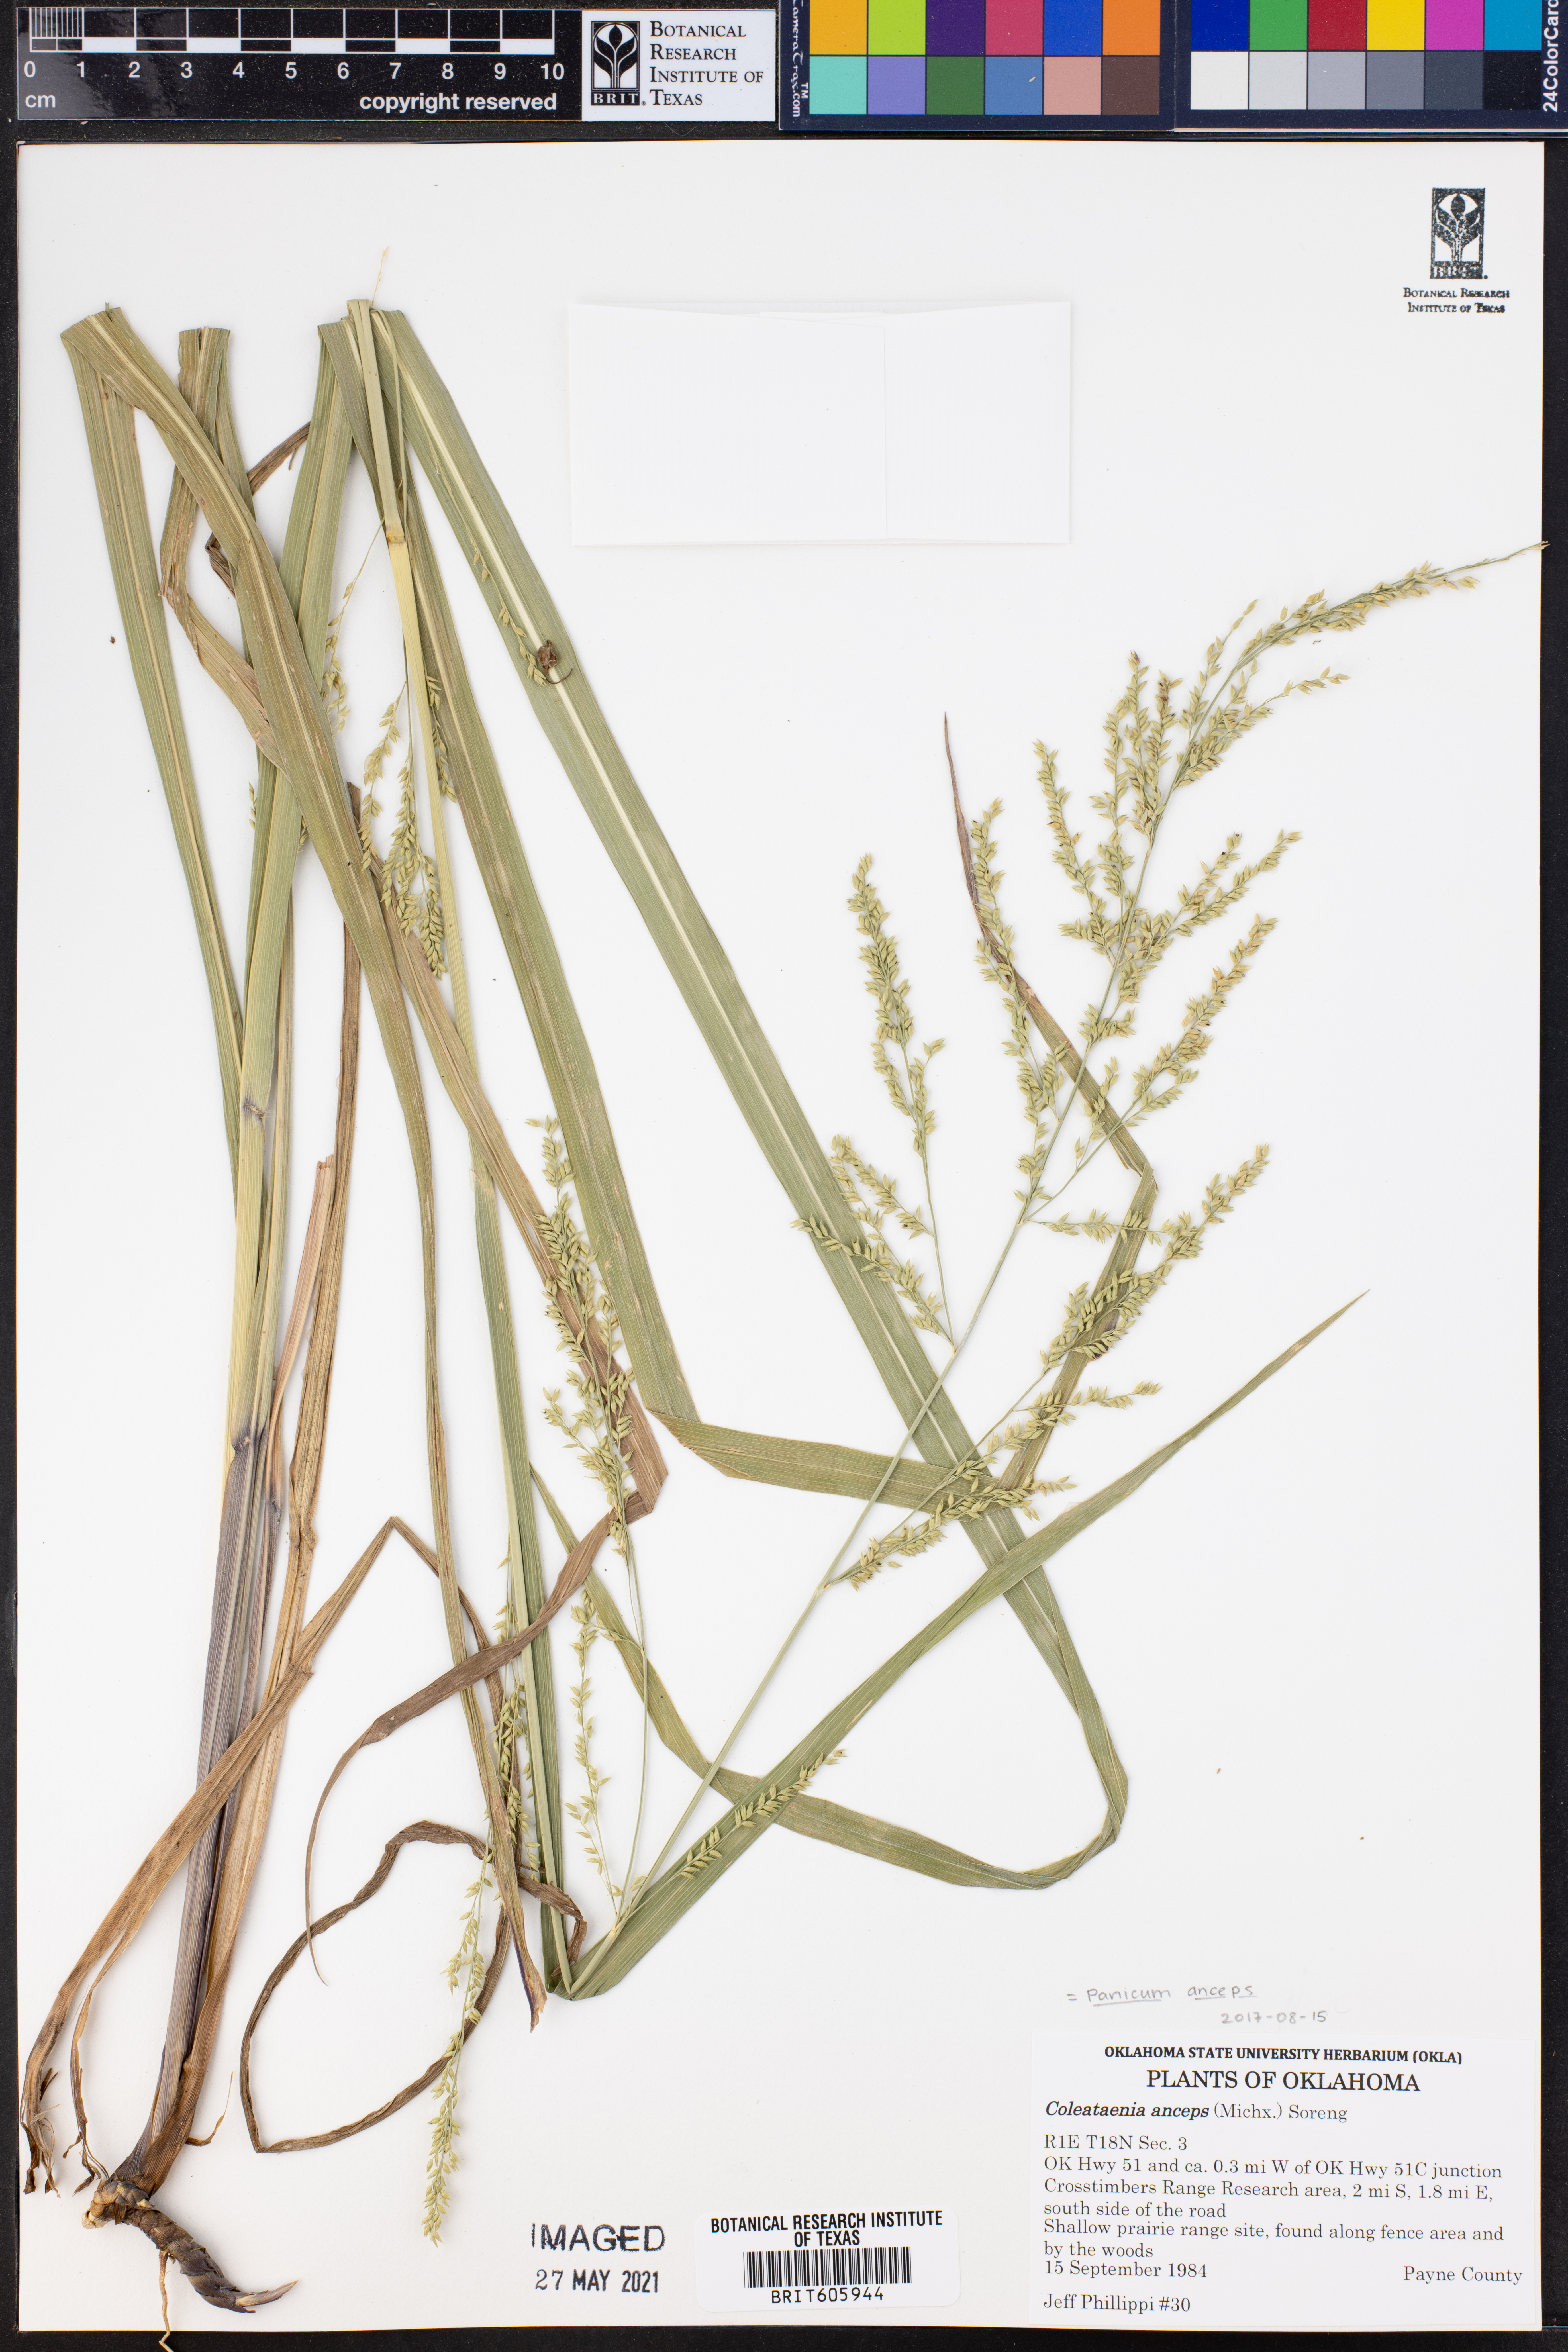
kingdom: Plantae
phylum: Tracheophyta
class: Liliopsida
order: Poales
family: Poaceae
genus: Coleataenia
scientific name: Coleataenia anceps
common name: Beaked panic grass
